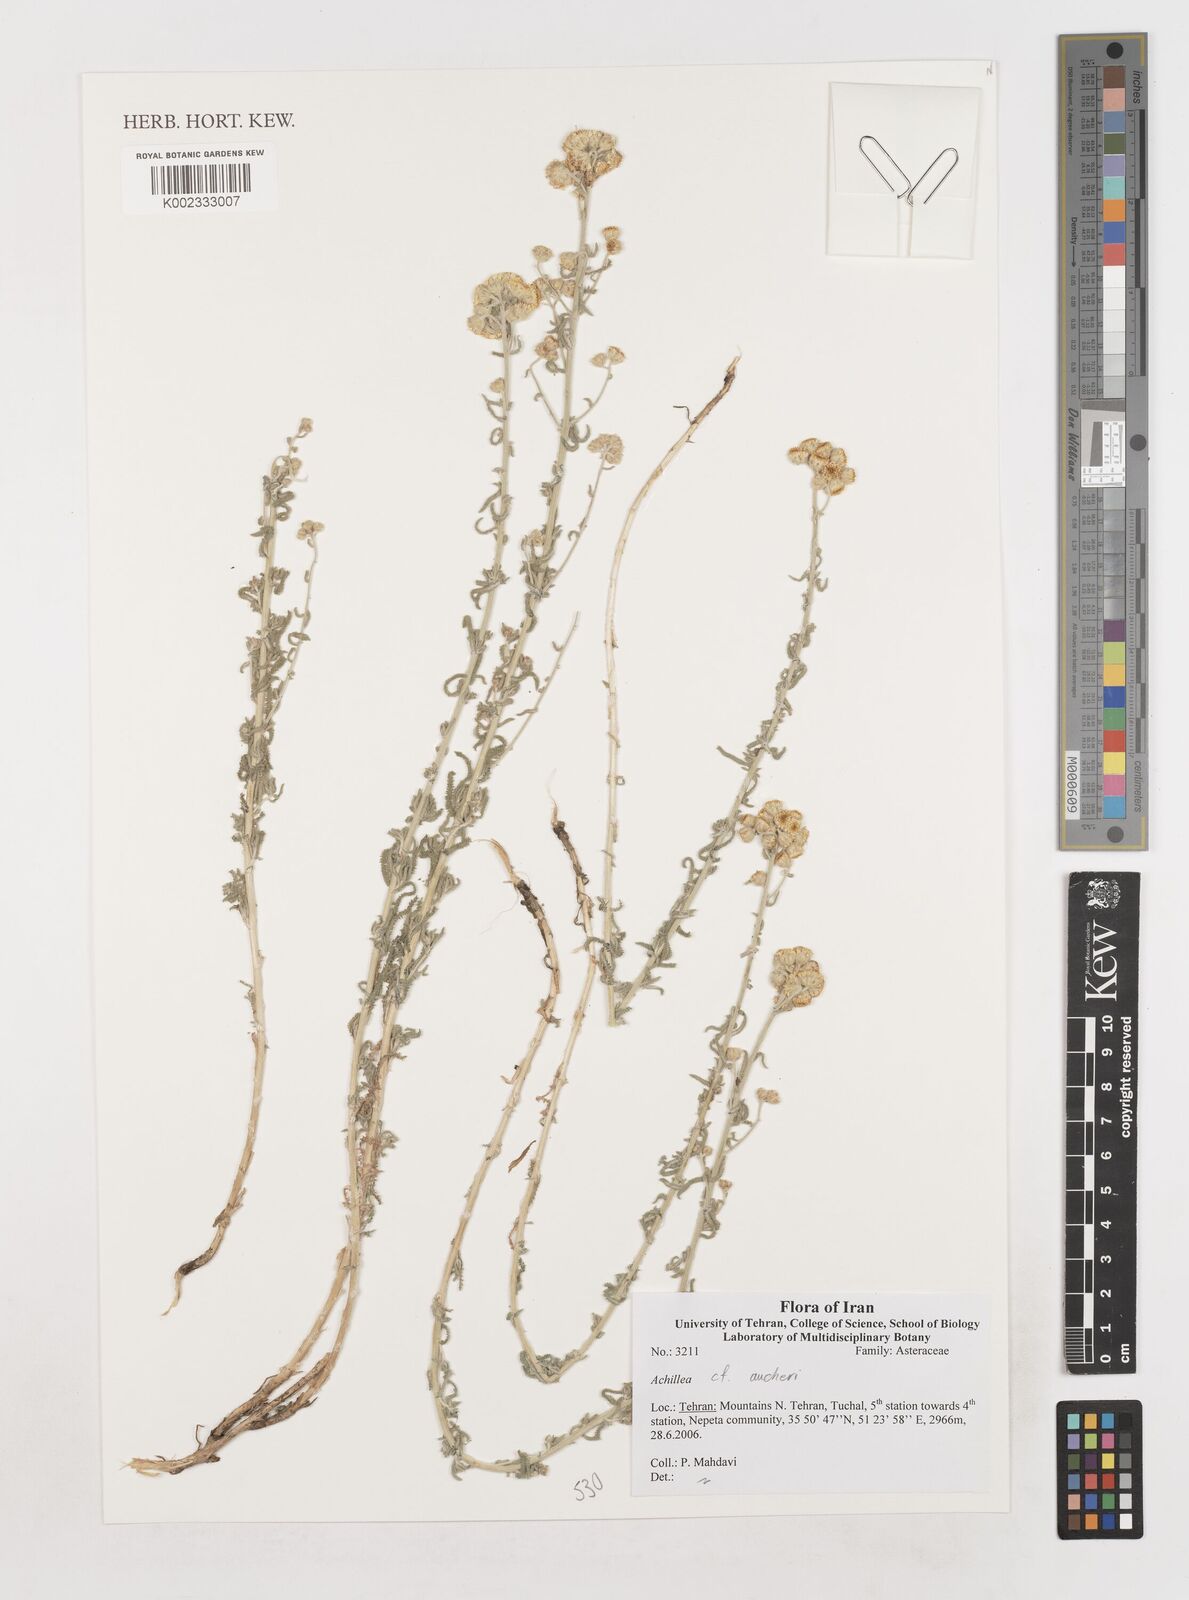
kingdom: Plantae
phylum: Tracheophyta
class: Magnoliopsida
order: Asterales
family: Asteraceae
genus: Achillea
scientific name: Achillea aucheri
